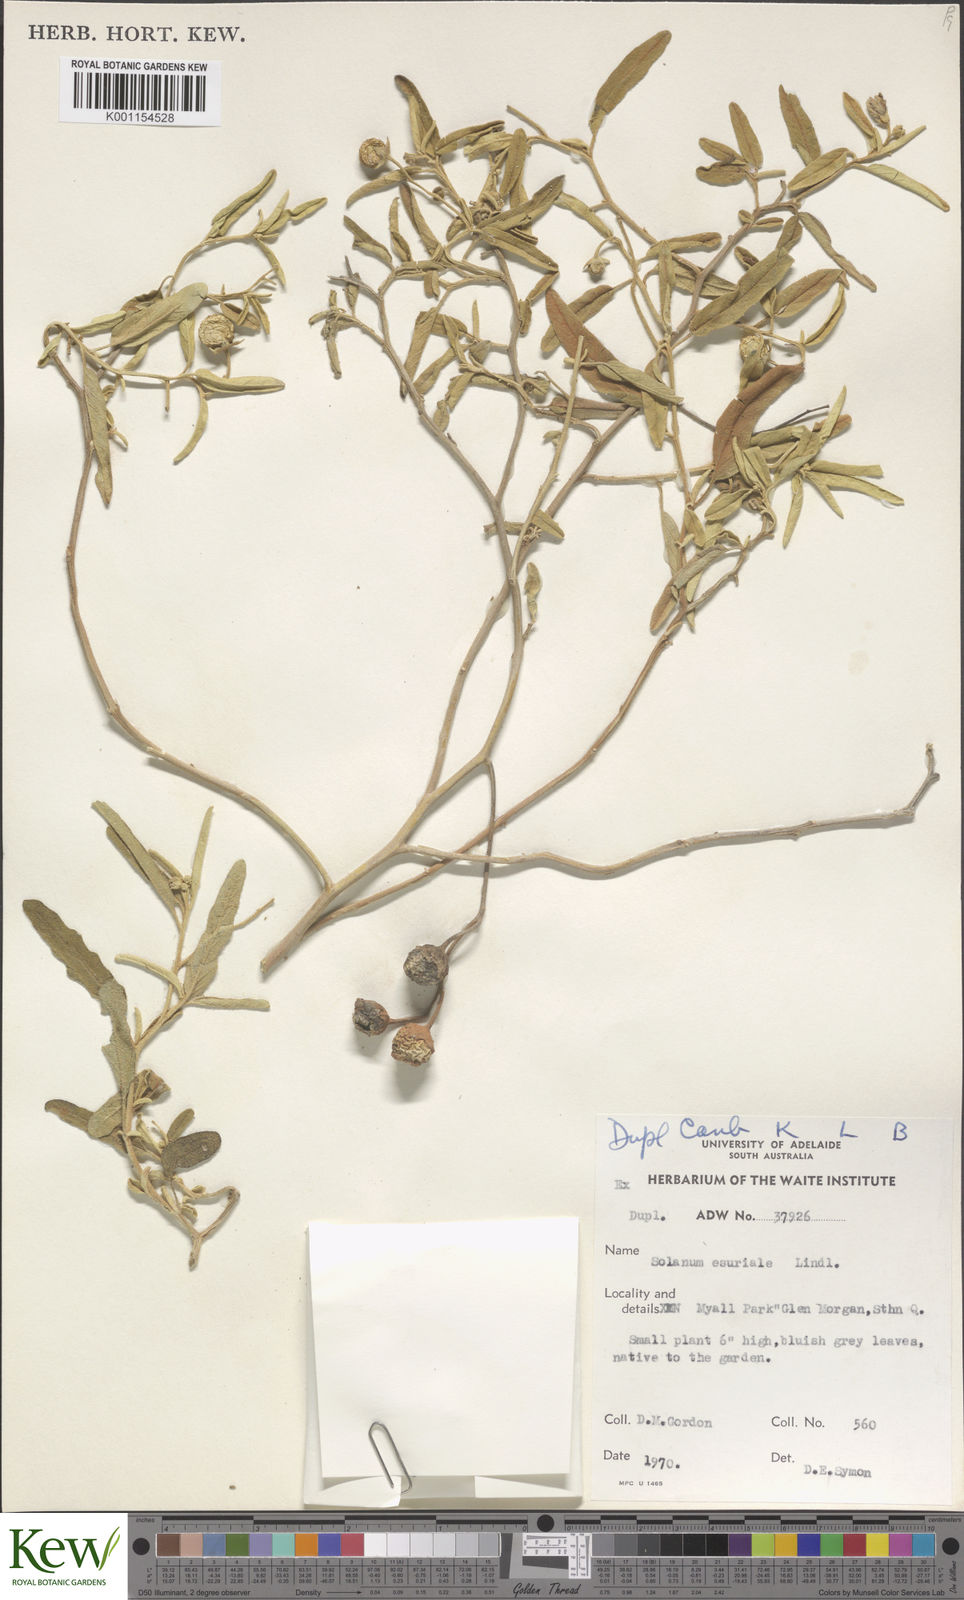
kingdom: Plantae
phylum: Tracheophyta
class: Magnoliopsida
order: Solanales
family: Solanaceae
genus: Solanum
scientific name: Solanum esuriale
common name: Wild tomato
